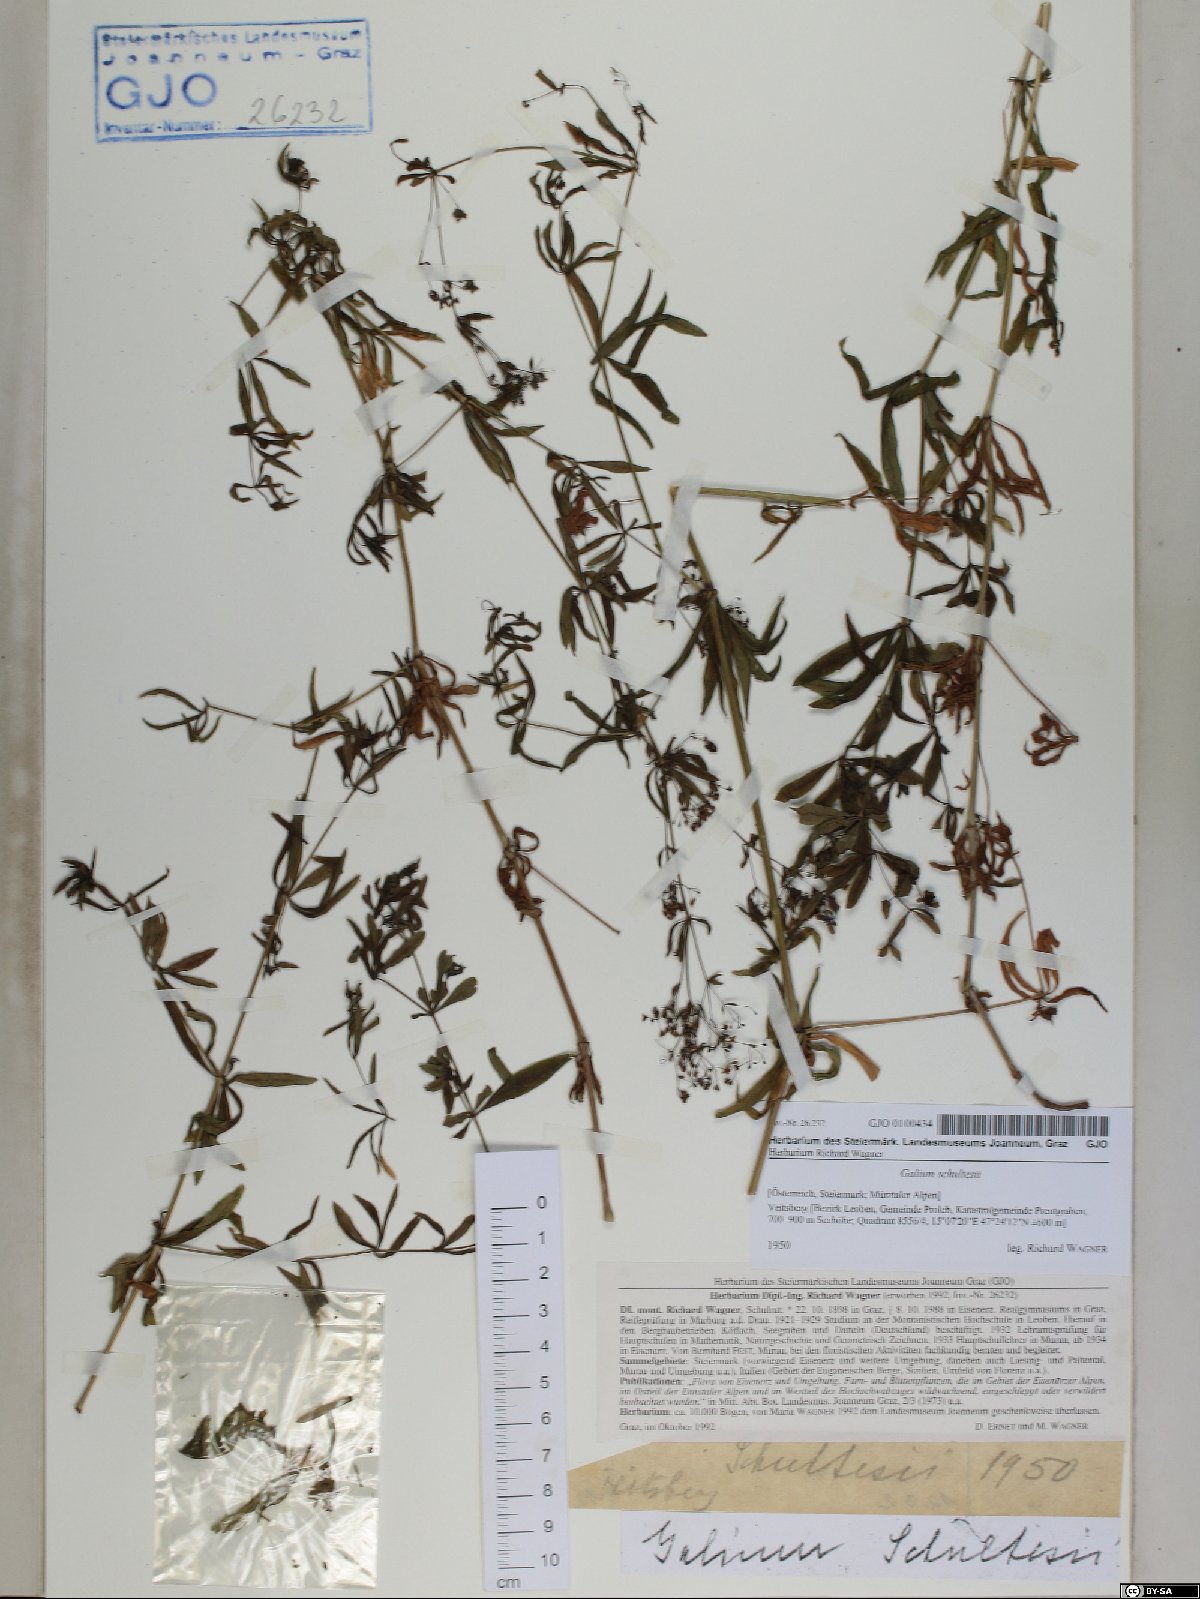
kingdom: Plantae
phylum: Tracheophyta
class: Magnoliopsida
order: Gentianales
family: Rubiaceae
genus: Galium
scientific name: Galium intermedium
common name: Bedstraw
